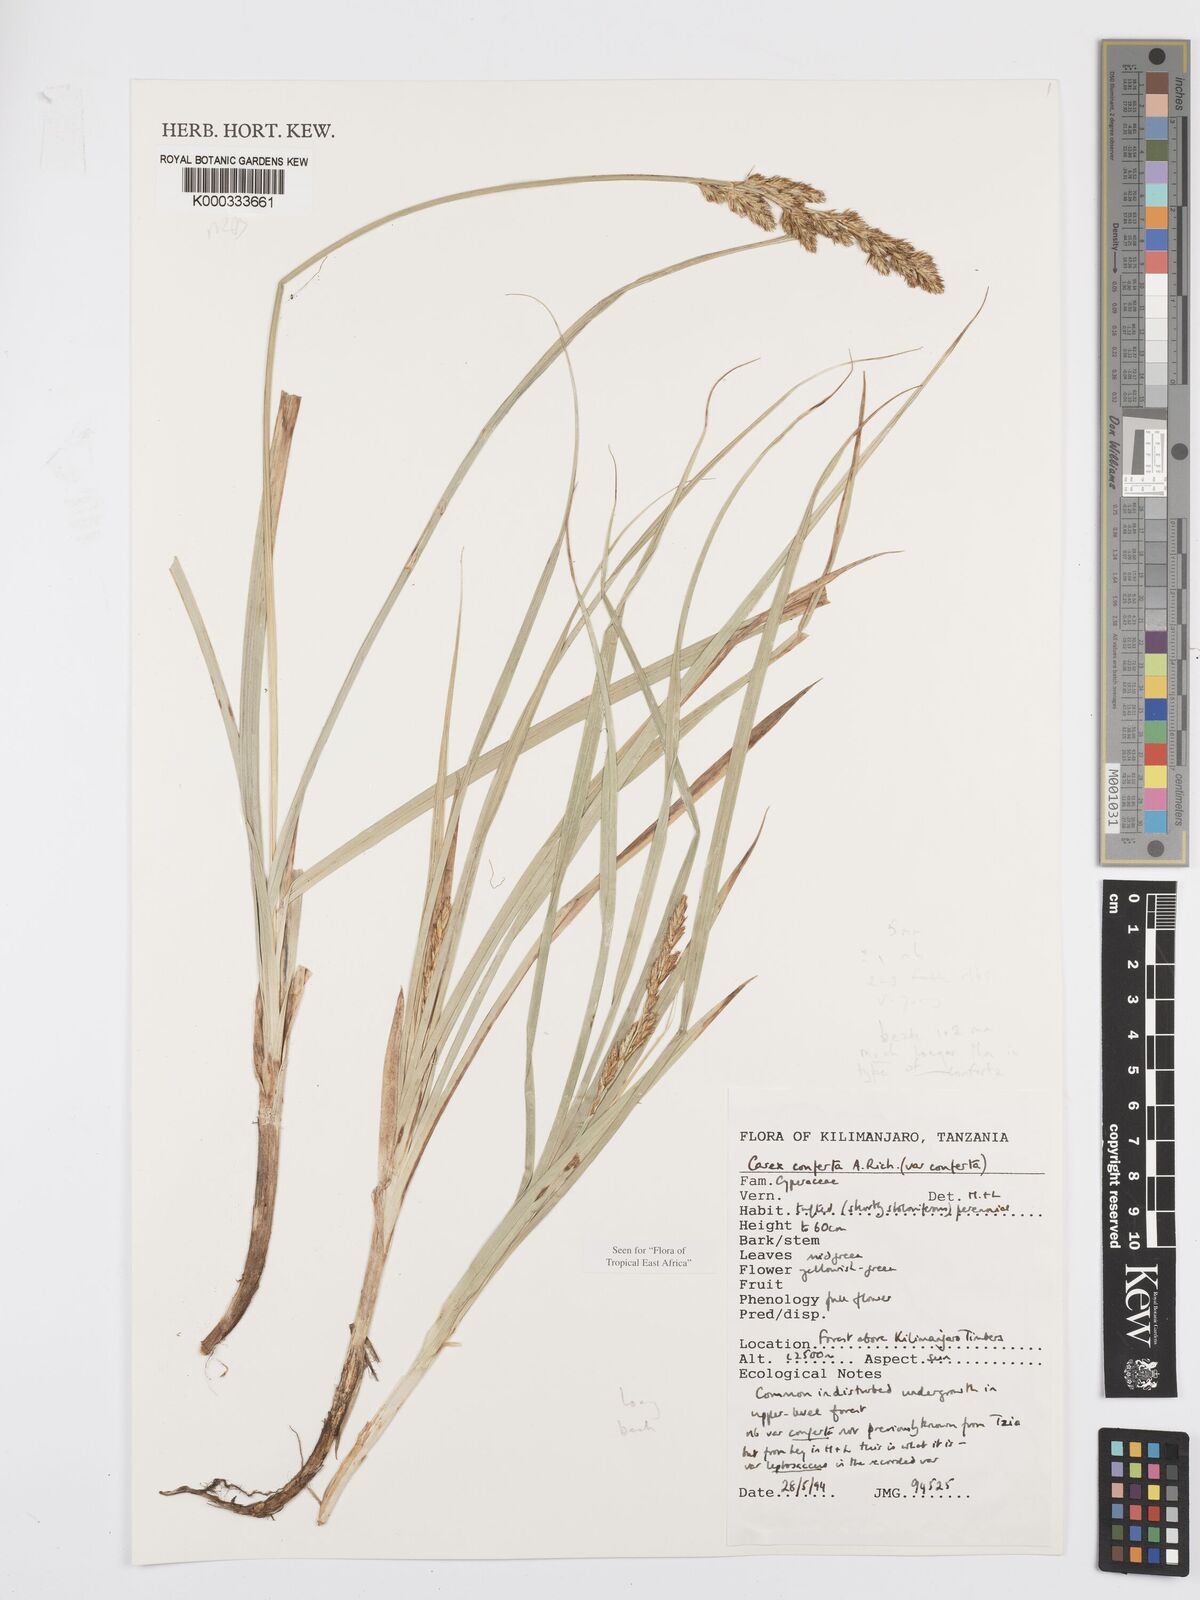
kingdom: Plantae
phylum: Tracheophyta
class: Liliopsida
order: Poales
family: Cyperaceae
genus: Carex
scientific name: Carex conferta
